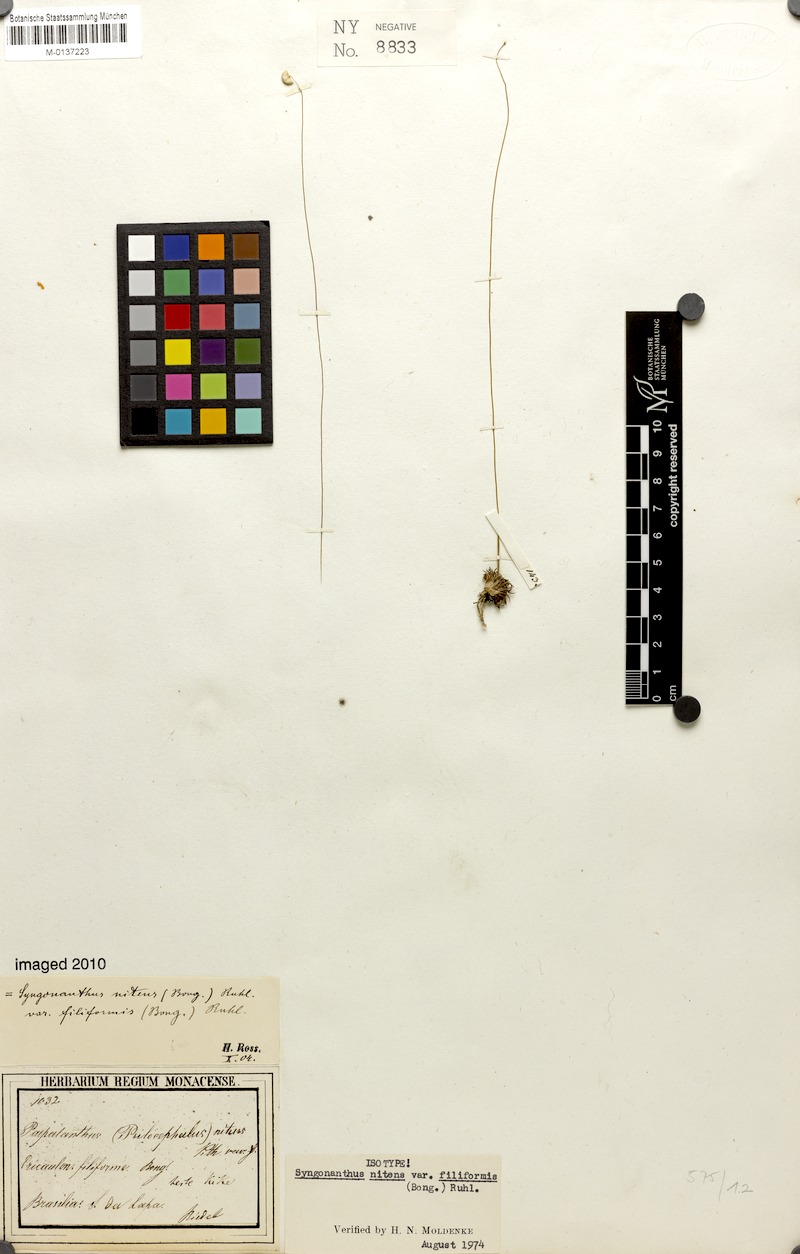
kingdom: Plantae
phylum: Tracheophyta
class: Liliopsida
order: Poales
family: Eriocaulaceae
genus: Syngonanthus
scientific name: Syngonanthus nitens
